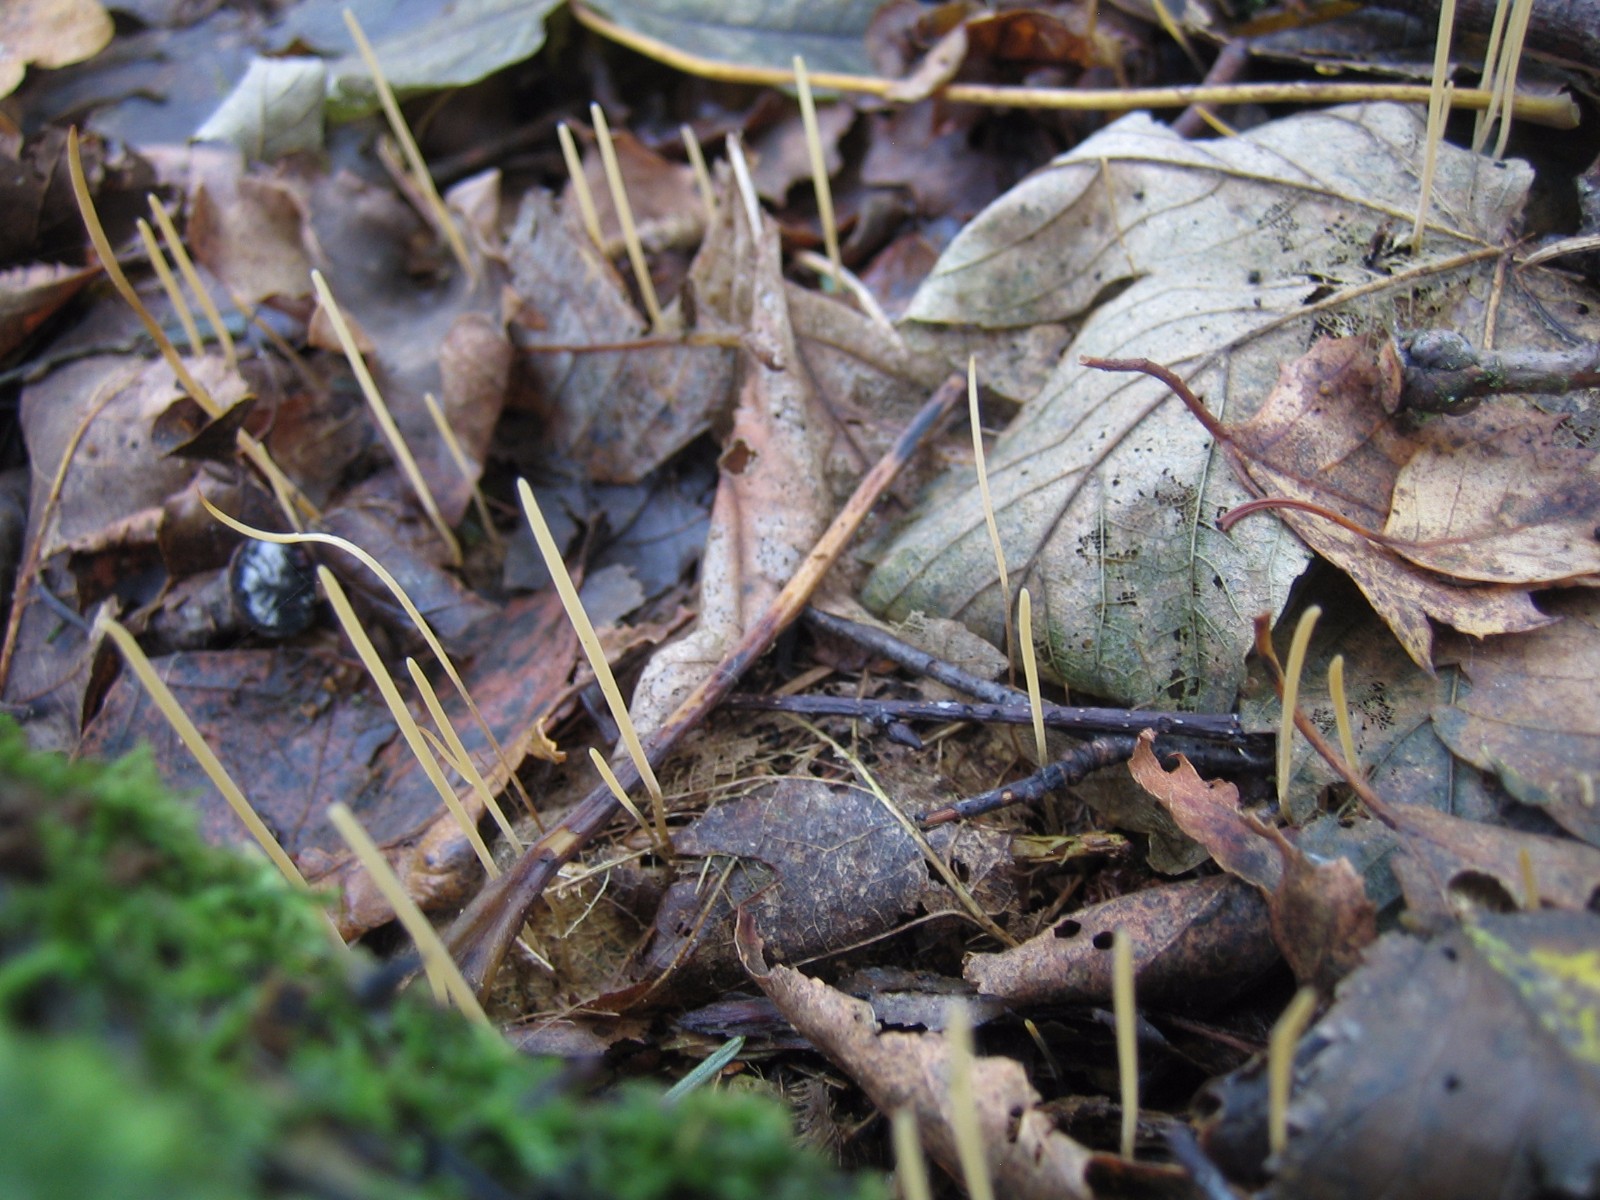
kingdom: Fungi
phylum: Basidiomycota
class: Agaricomycetes
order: Agaricales
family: Typhulaceae
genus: Macrotyphula
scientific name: Macrotyphula
